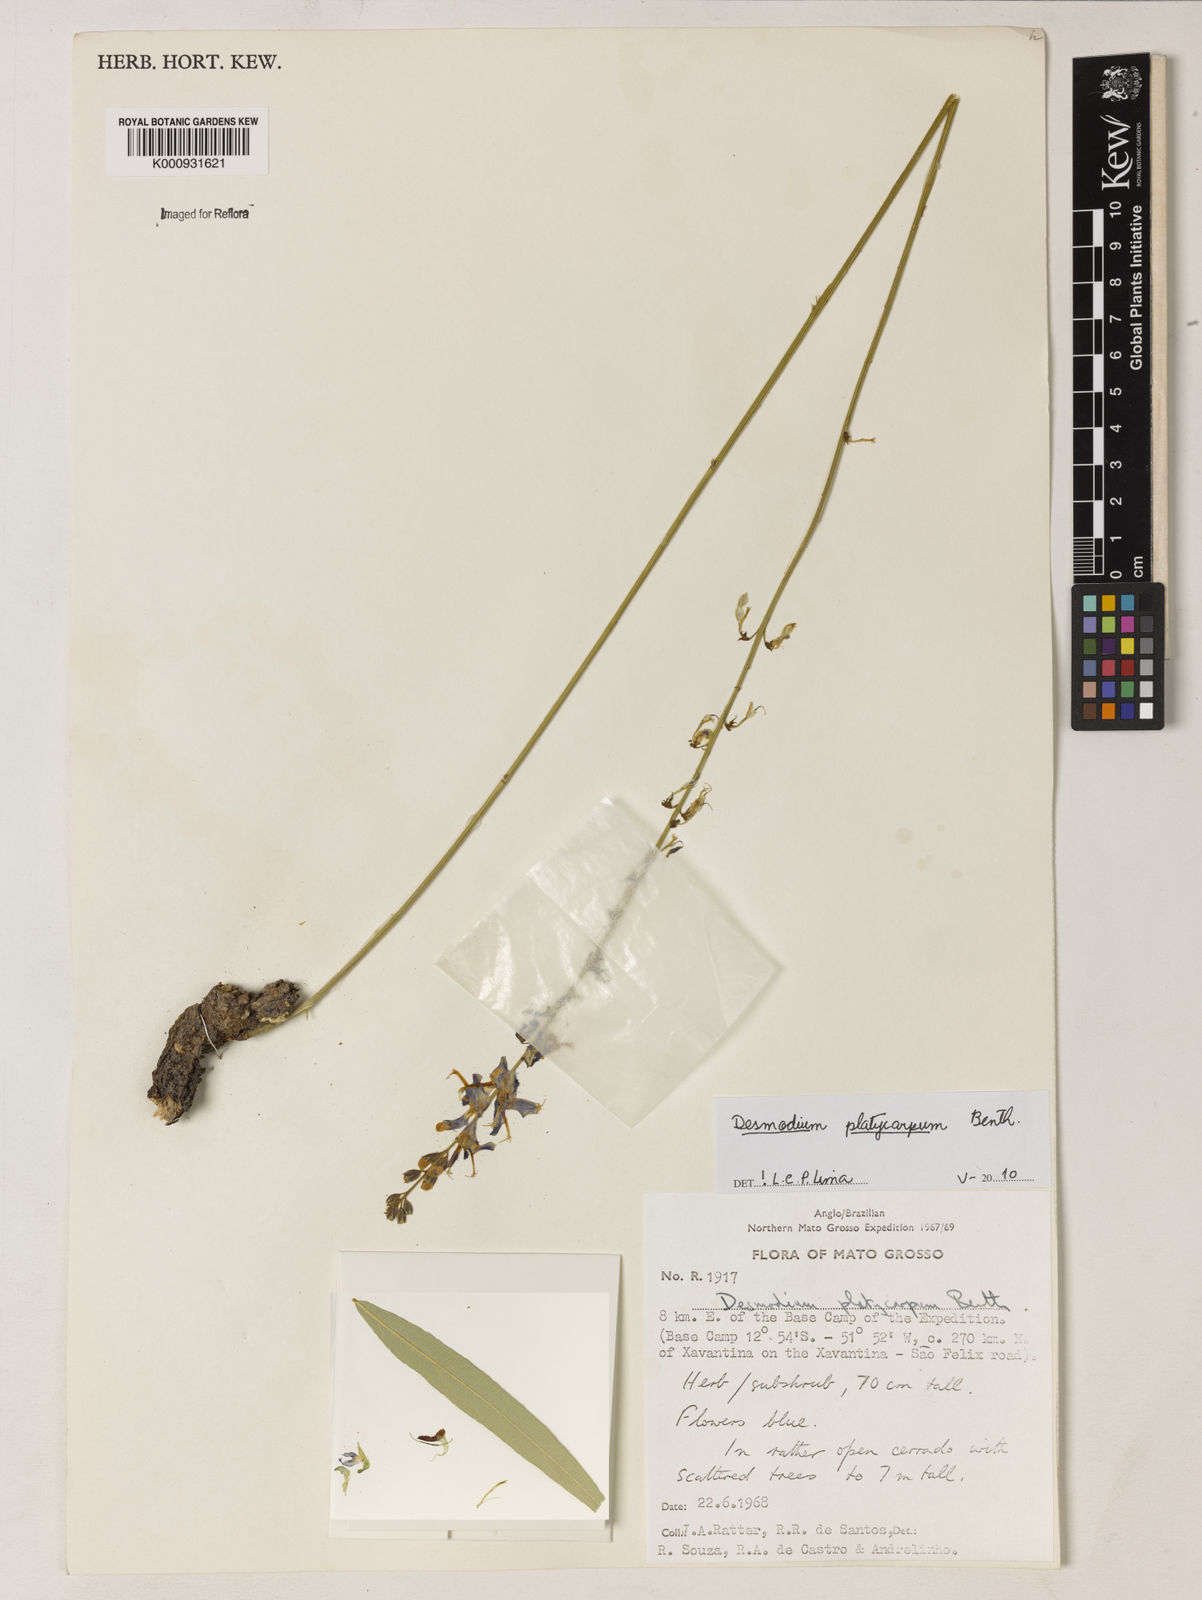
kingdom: Plantae
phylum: Tracheophyta
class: Magnoliopsida
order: Fabales
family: Fabaceae
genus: Desmodium
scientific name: Desmodium platycarpum
